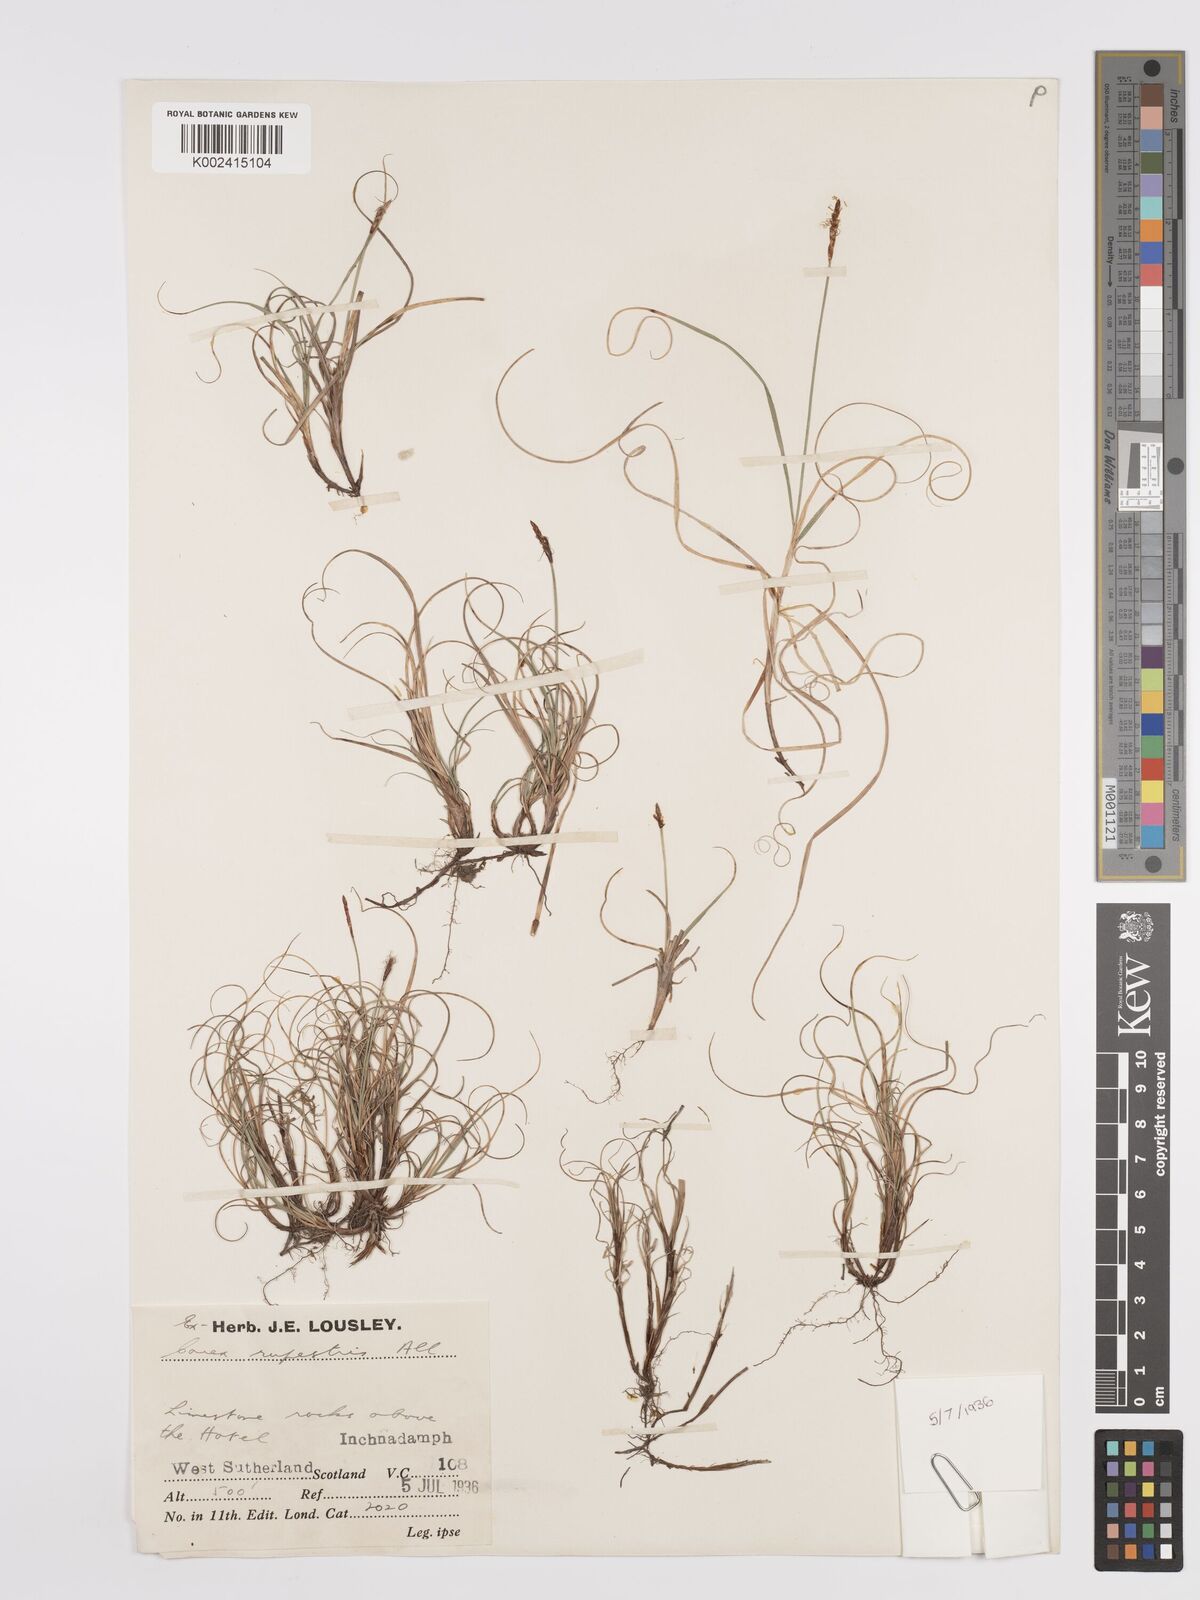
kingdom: Plantae
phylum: Tracheophyta
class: Liliopsida
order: Poales
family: Cyperaceae
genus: Carex
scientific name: Carex rupestris
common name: Rock sedge
